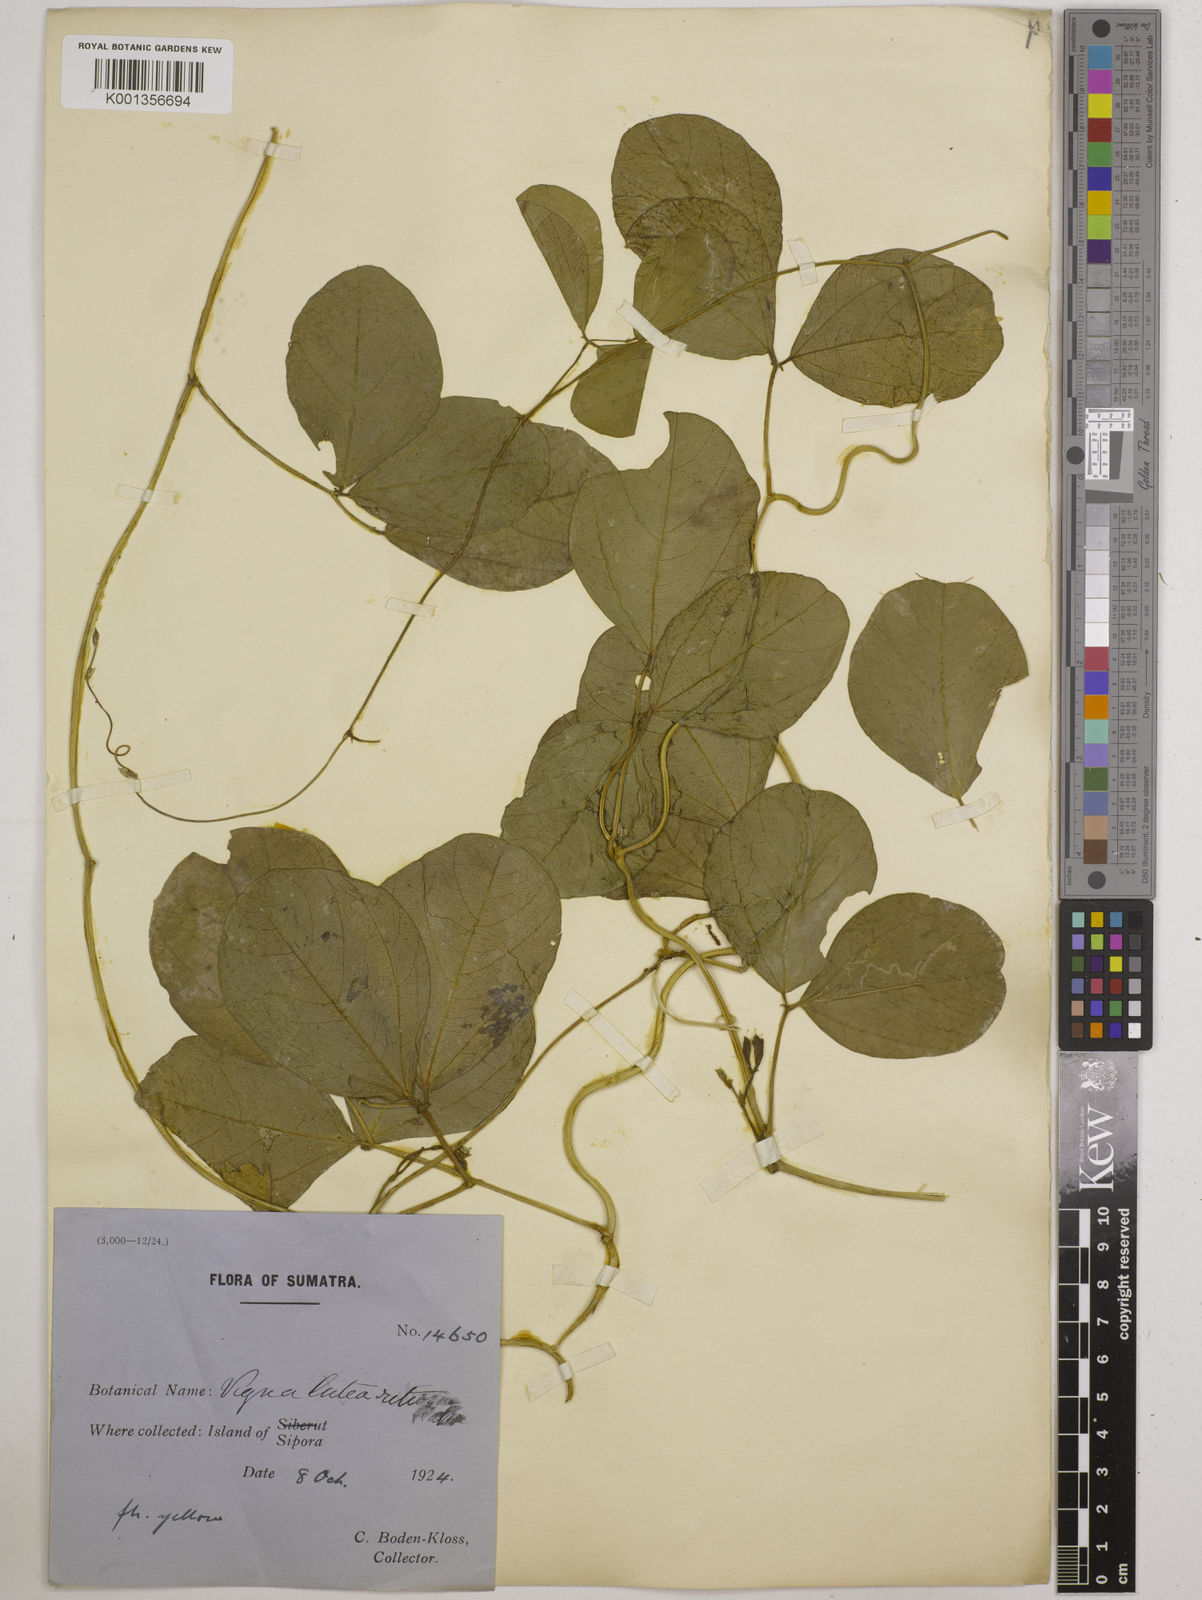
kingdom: Plantae
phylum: Tracheophyta
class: Magnoliopsida
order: Fabales
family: Fabaceae
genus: Vigna
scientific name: Vigna marina
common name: Dune-bean
